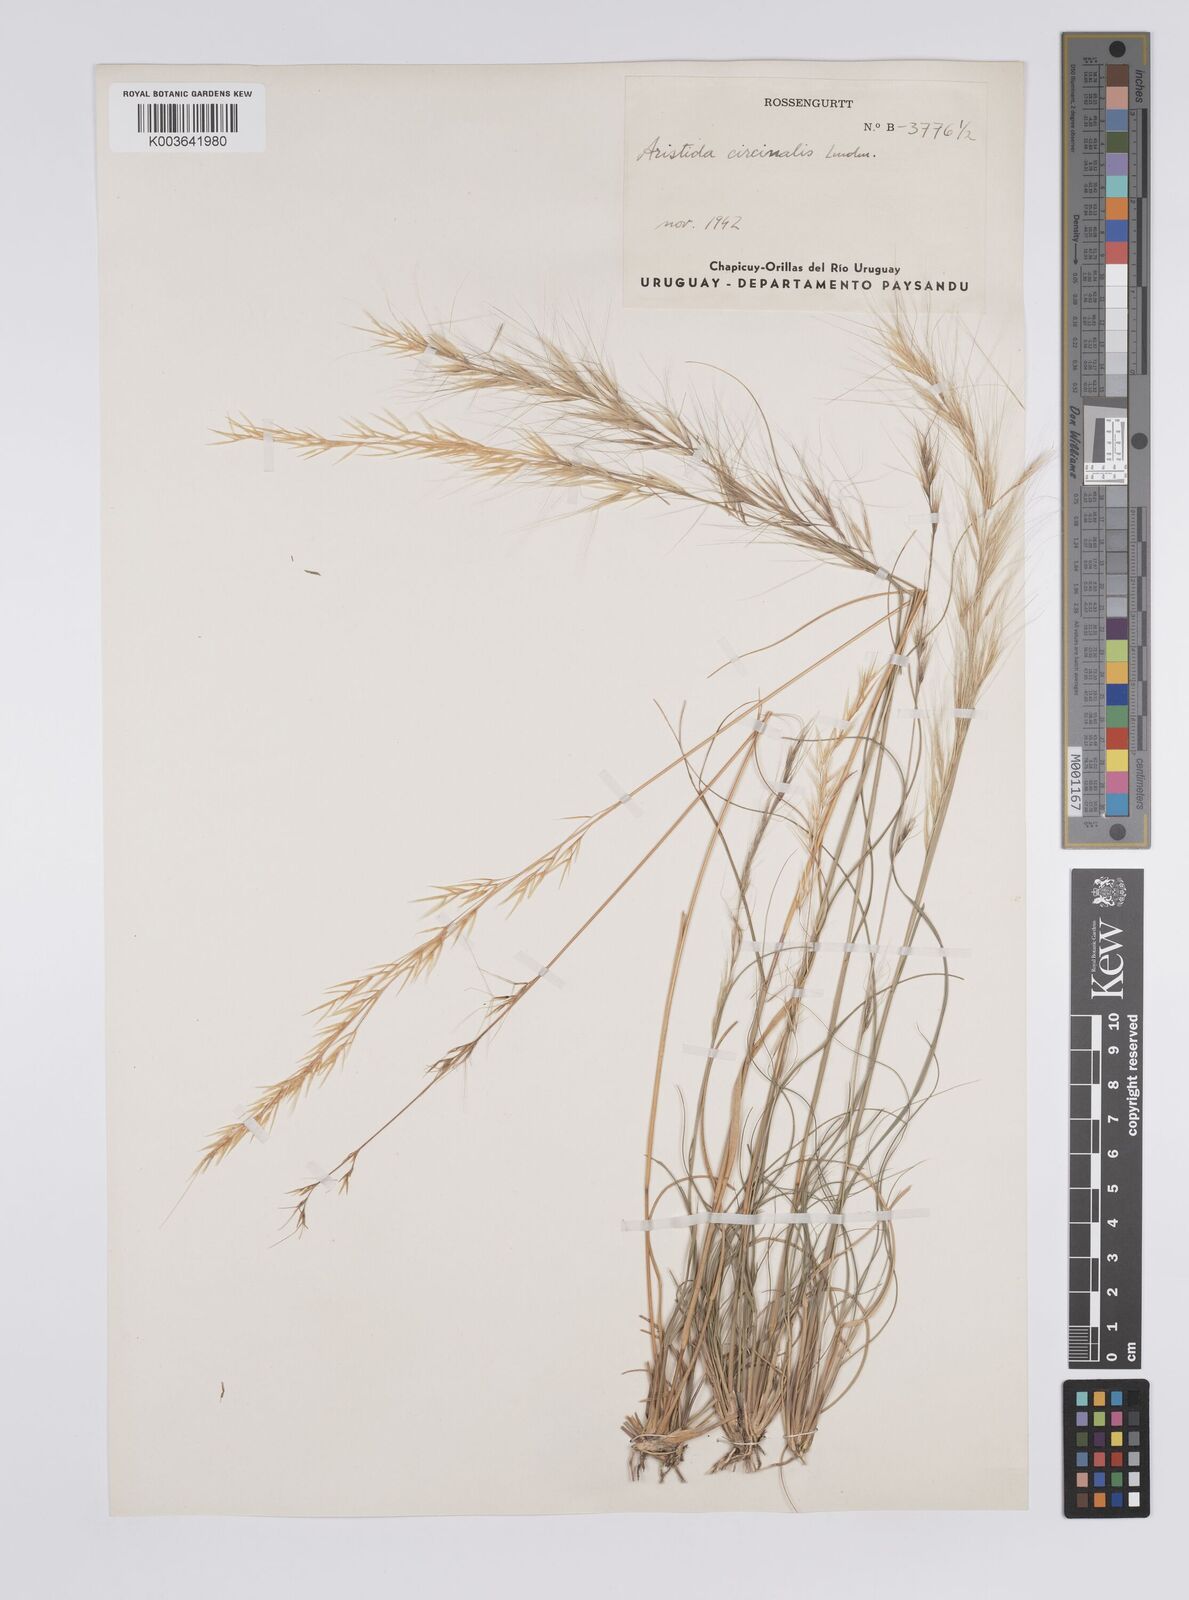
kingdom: Plantae
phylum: Tracheophyta
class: Liliopsida
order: Poales
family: Poaceae
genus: Aristida
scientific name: Aristida circinalis
